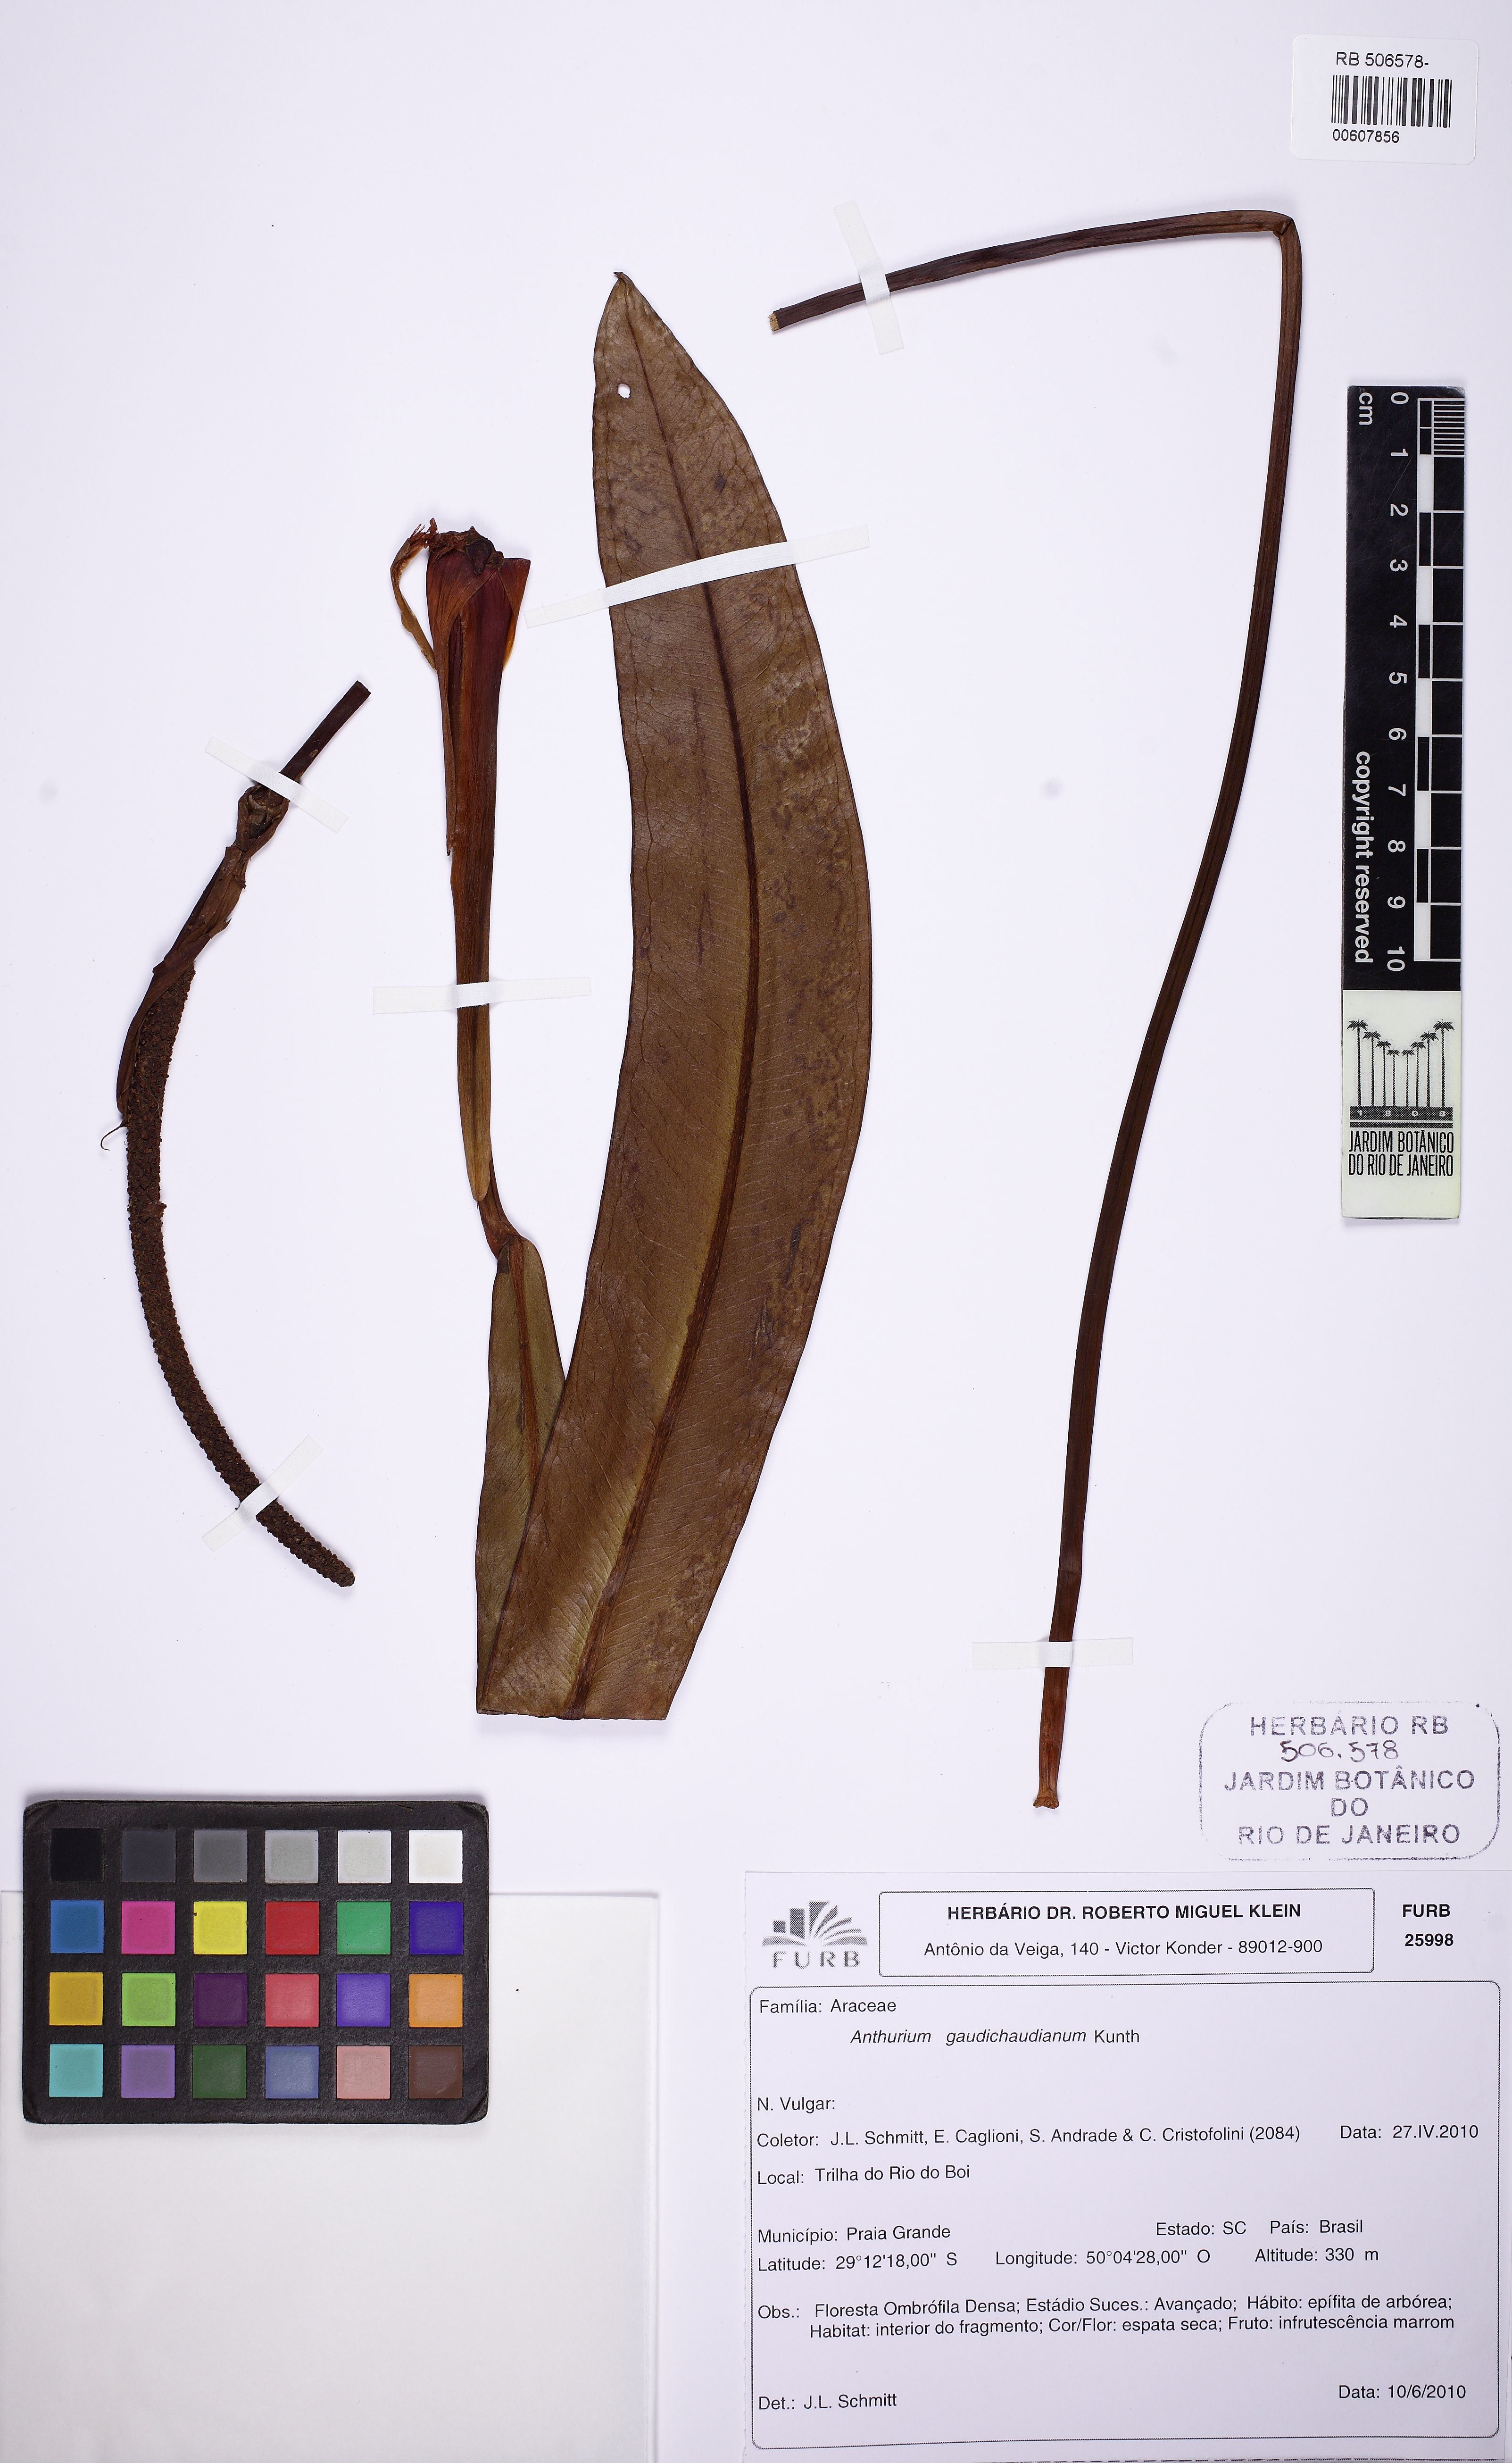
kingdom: Plantae
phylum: Tracheophyta
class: Liliopsida
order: Alismatales
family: Araceae
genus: Anthurium
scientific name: Anthurium gaudichaudianum
